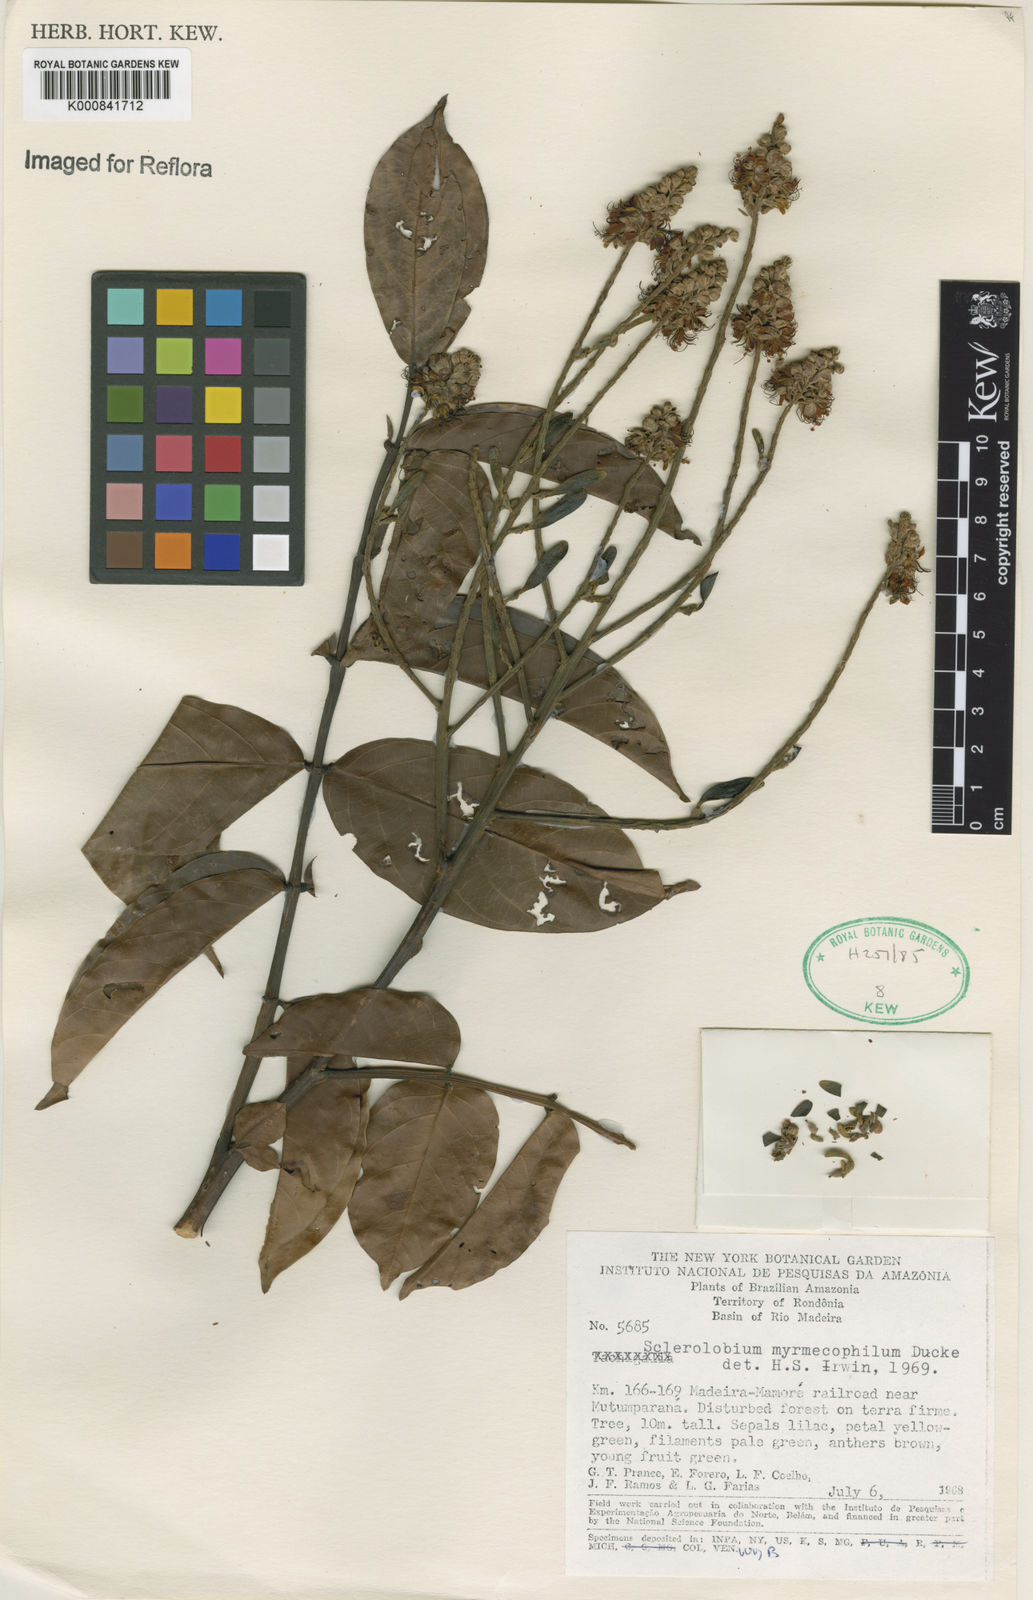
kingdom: Plantae
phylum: Tracheophyta
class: Magnoliopsida
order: Fabales
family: Fabaceae
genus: Tachigali
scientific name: Tachigali glauca
